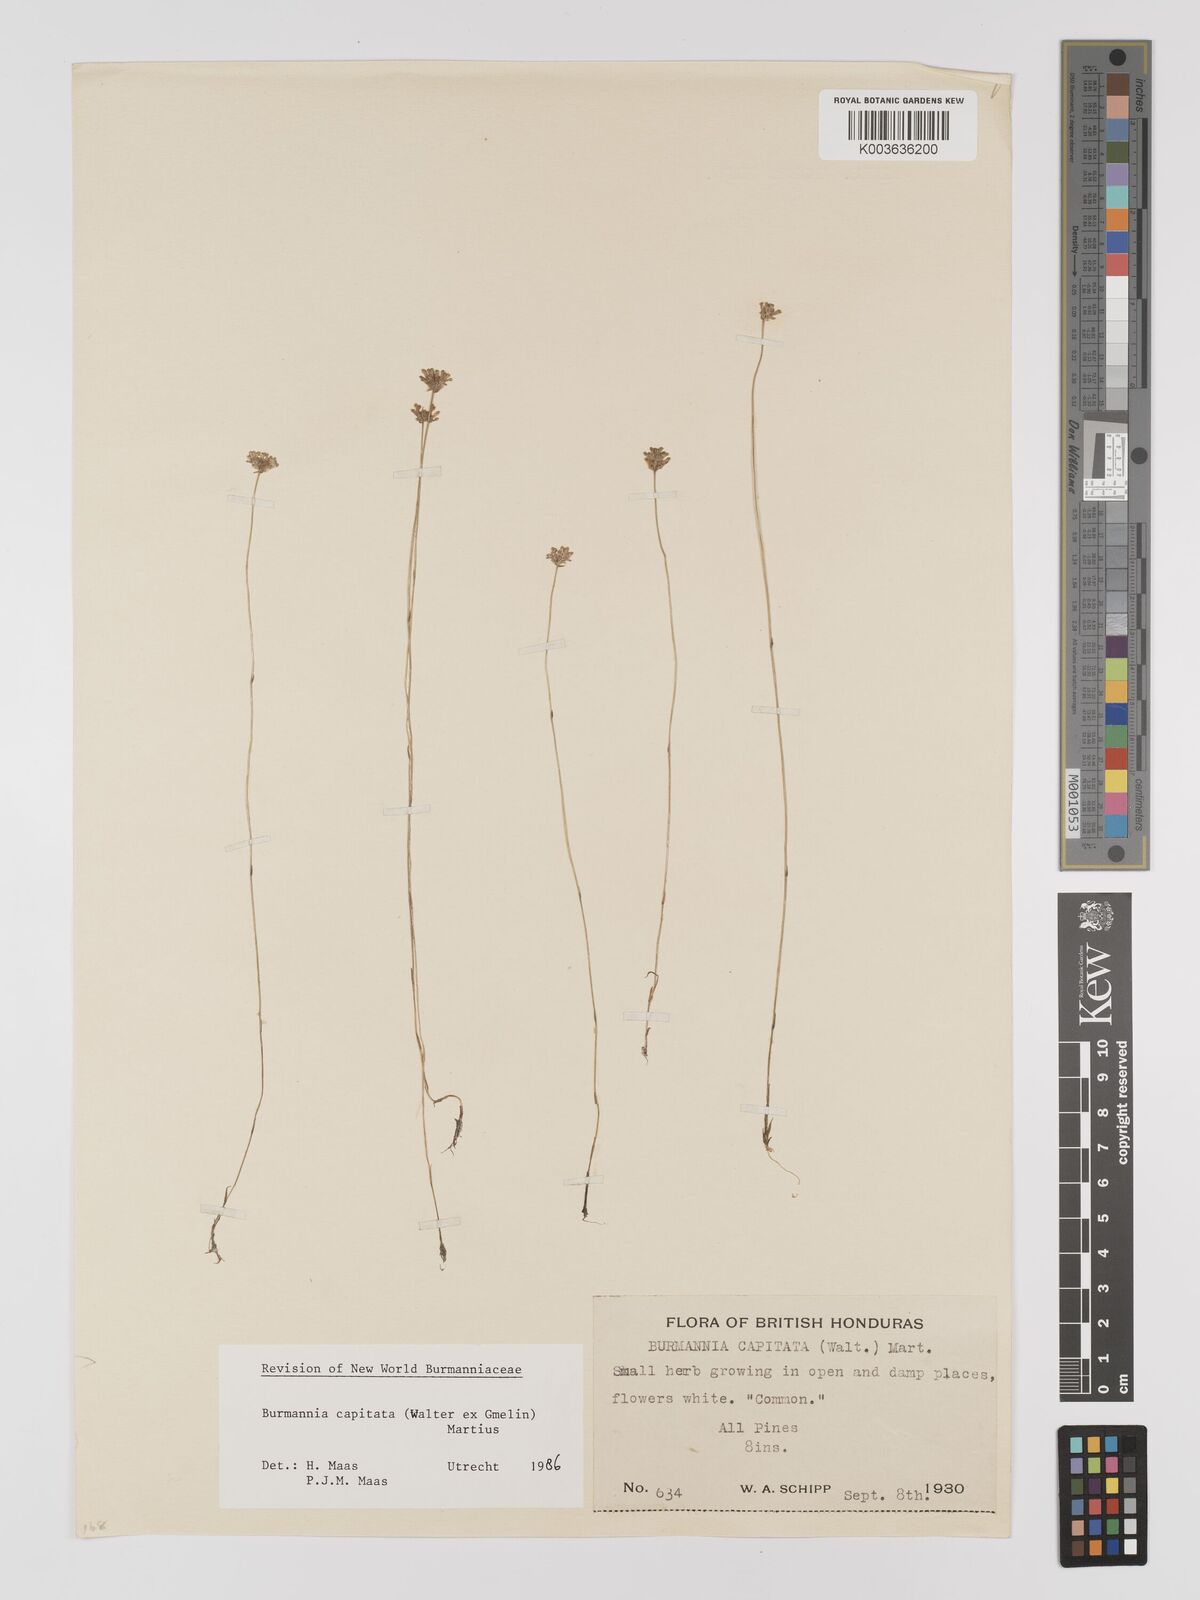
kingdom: Plantae
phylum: Tracheophyta
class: Liliopsida
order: Dioscoreales
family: Burmanniaceae
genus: Burmannia
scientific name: Burmannia capitata
